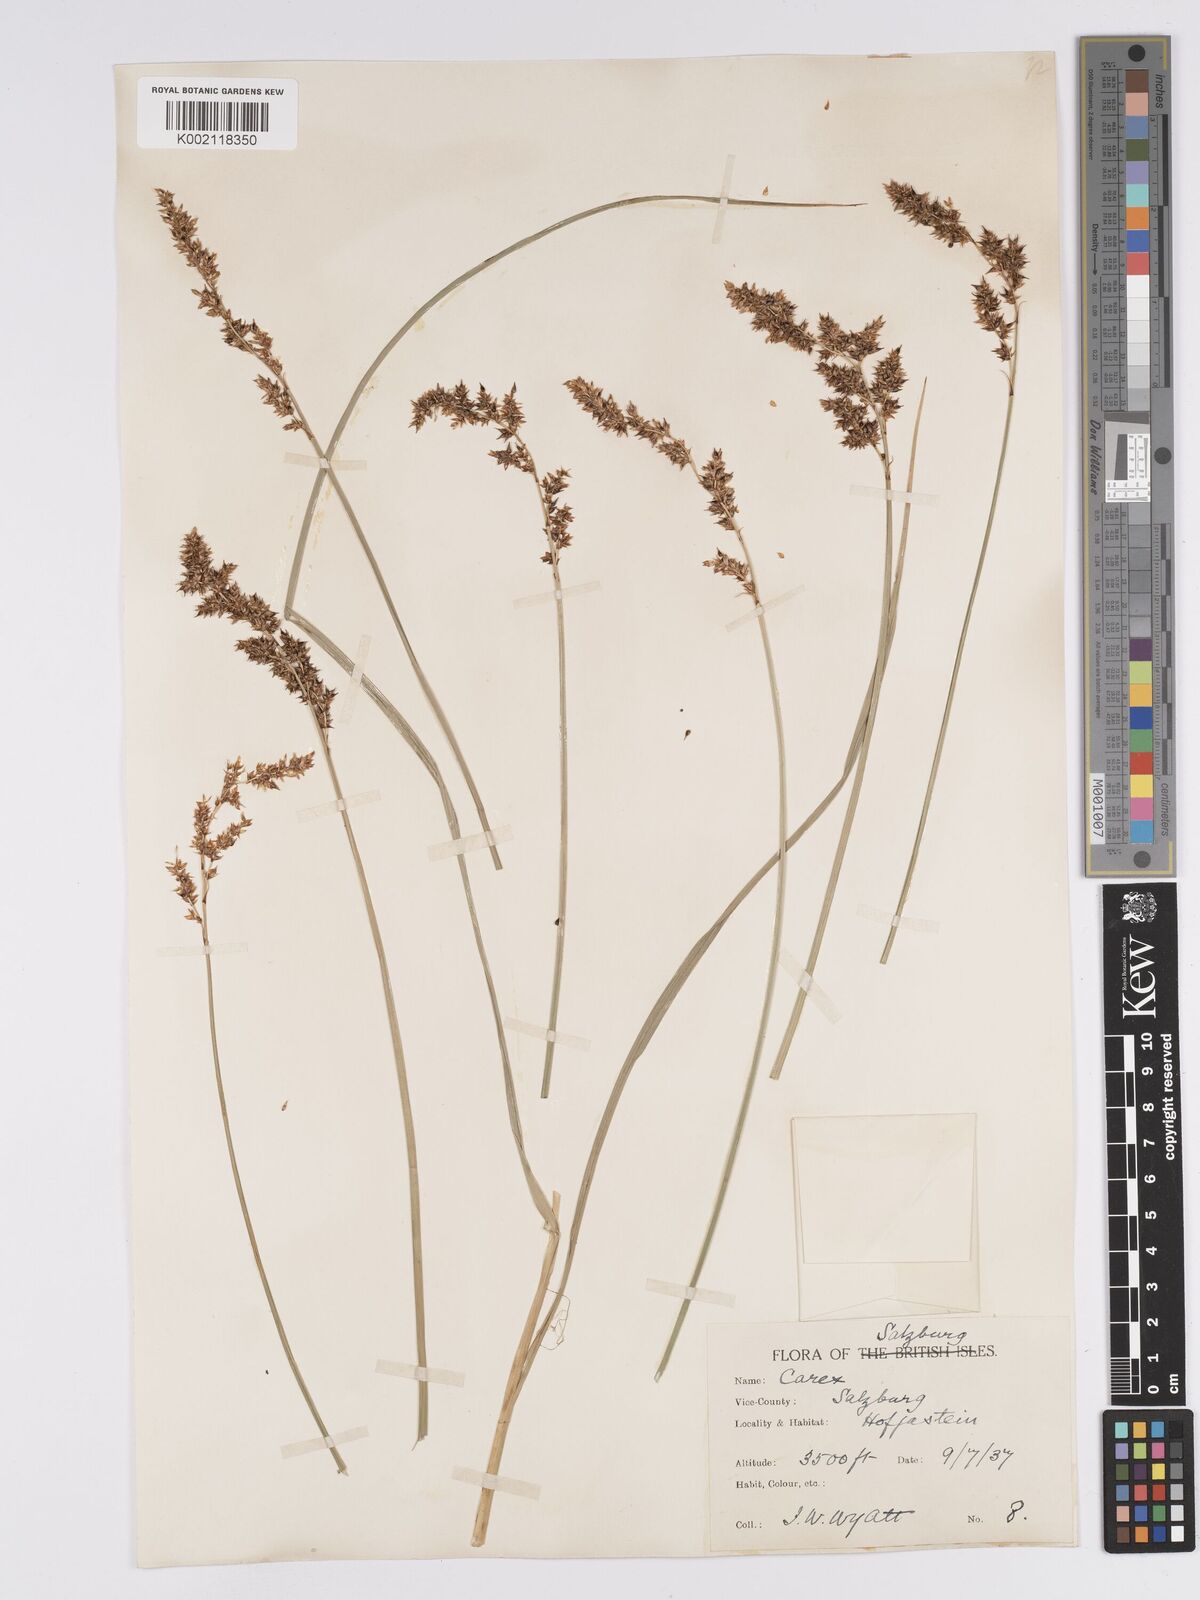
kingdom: Plantae
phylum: Tracheophyta
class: Liliopsida
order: Poales
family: Cyperaceae
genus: Carex
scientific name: Carex paniculata
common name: Greater tussock-sedge
